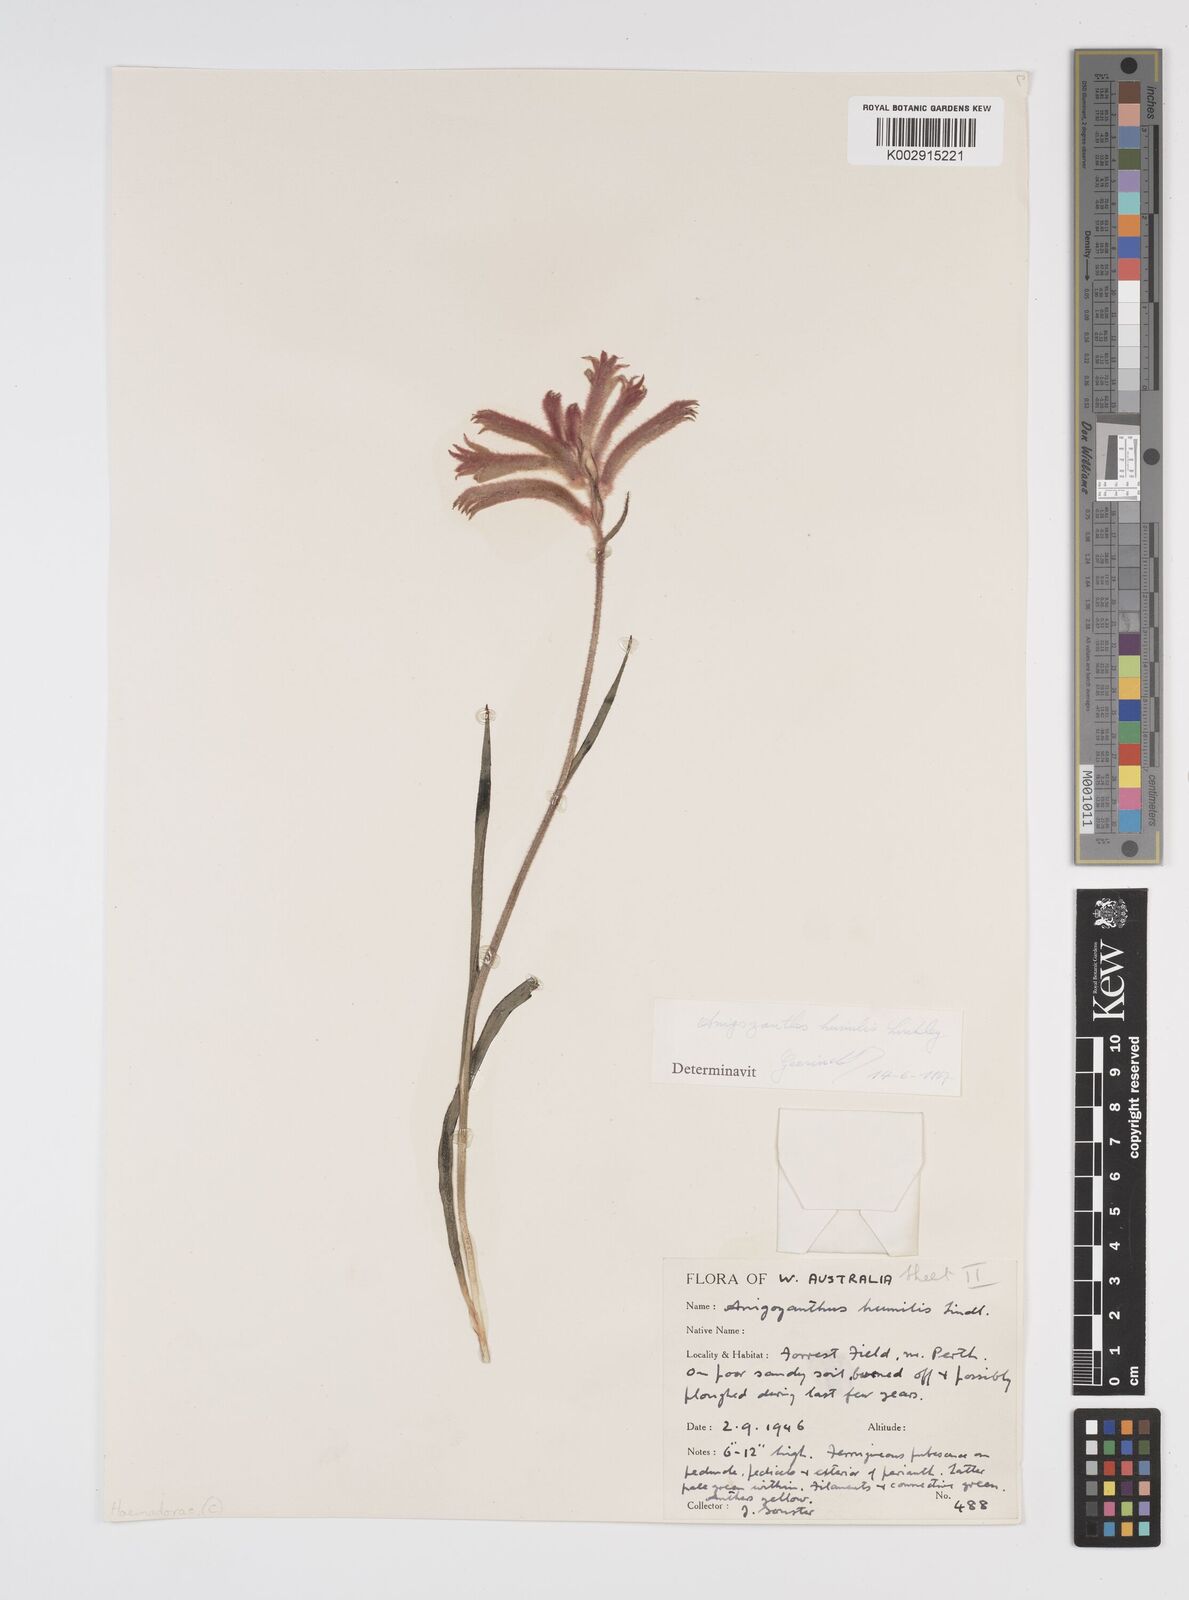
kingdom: Plantae
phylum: Tracheophyta
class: Liliopsida
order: Commelinales
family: Haemodoraceae
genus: Anigozanthos
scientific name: Anigozanthos humilis
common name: Cat's-paw
